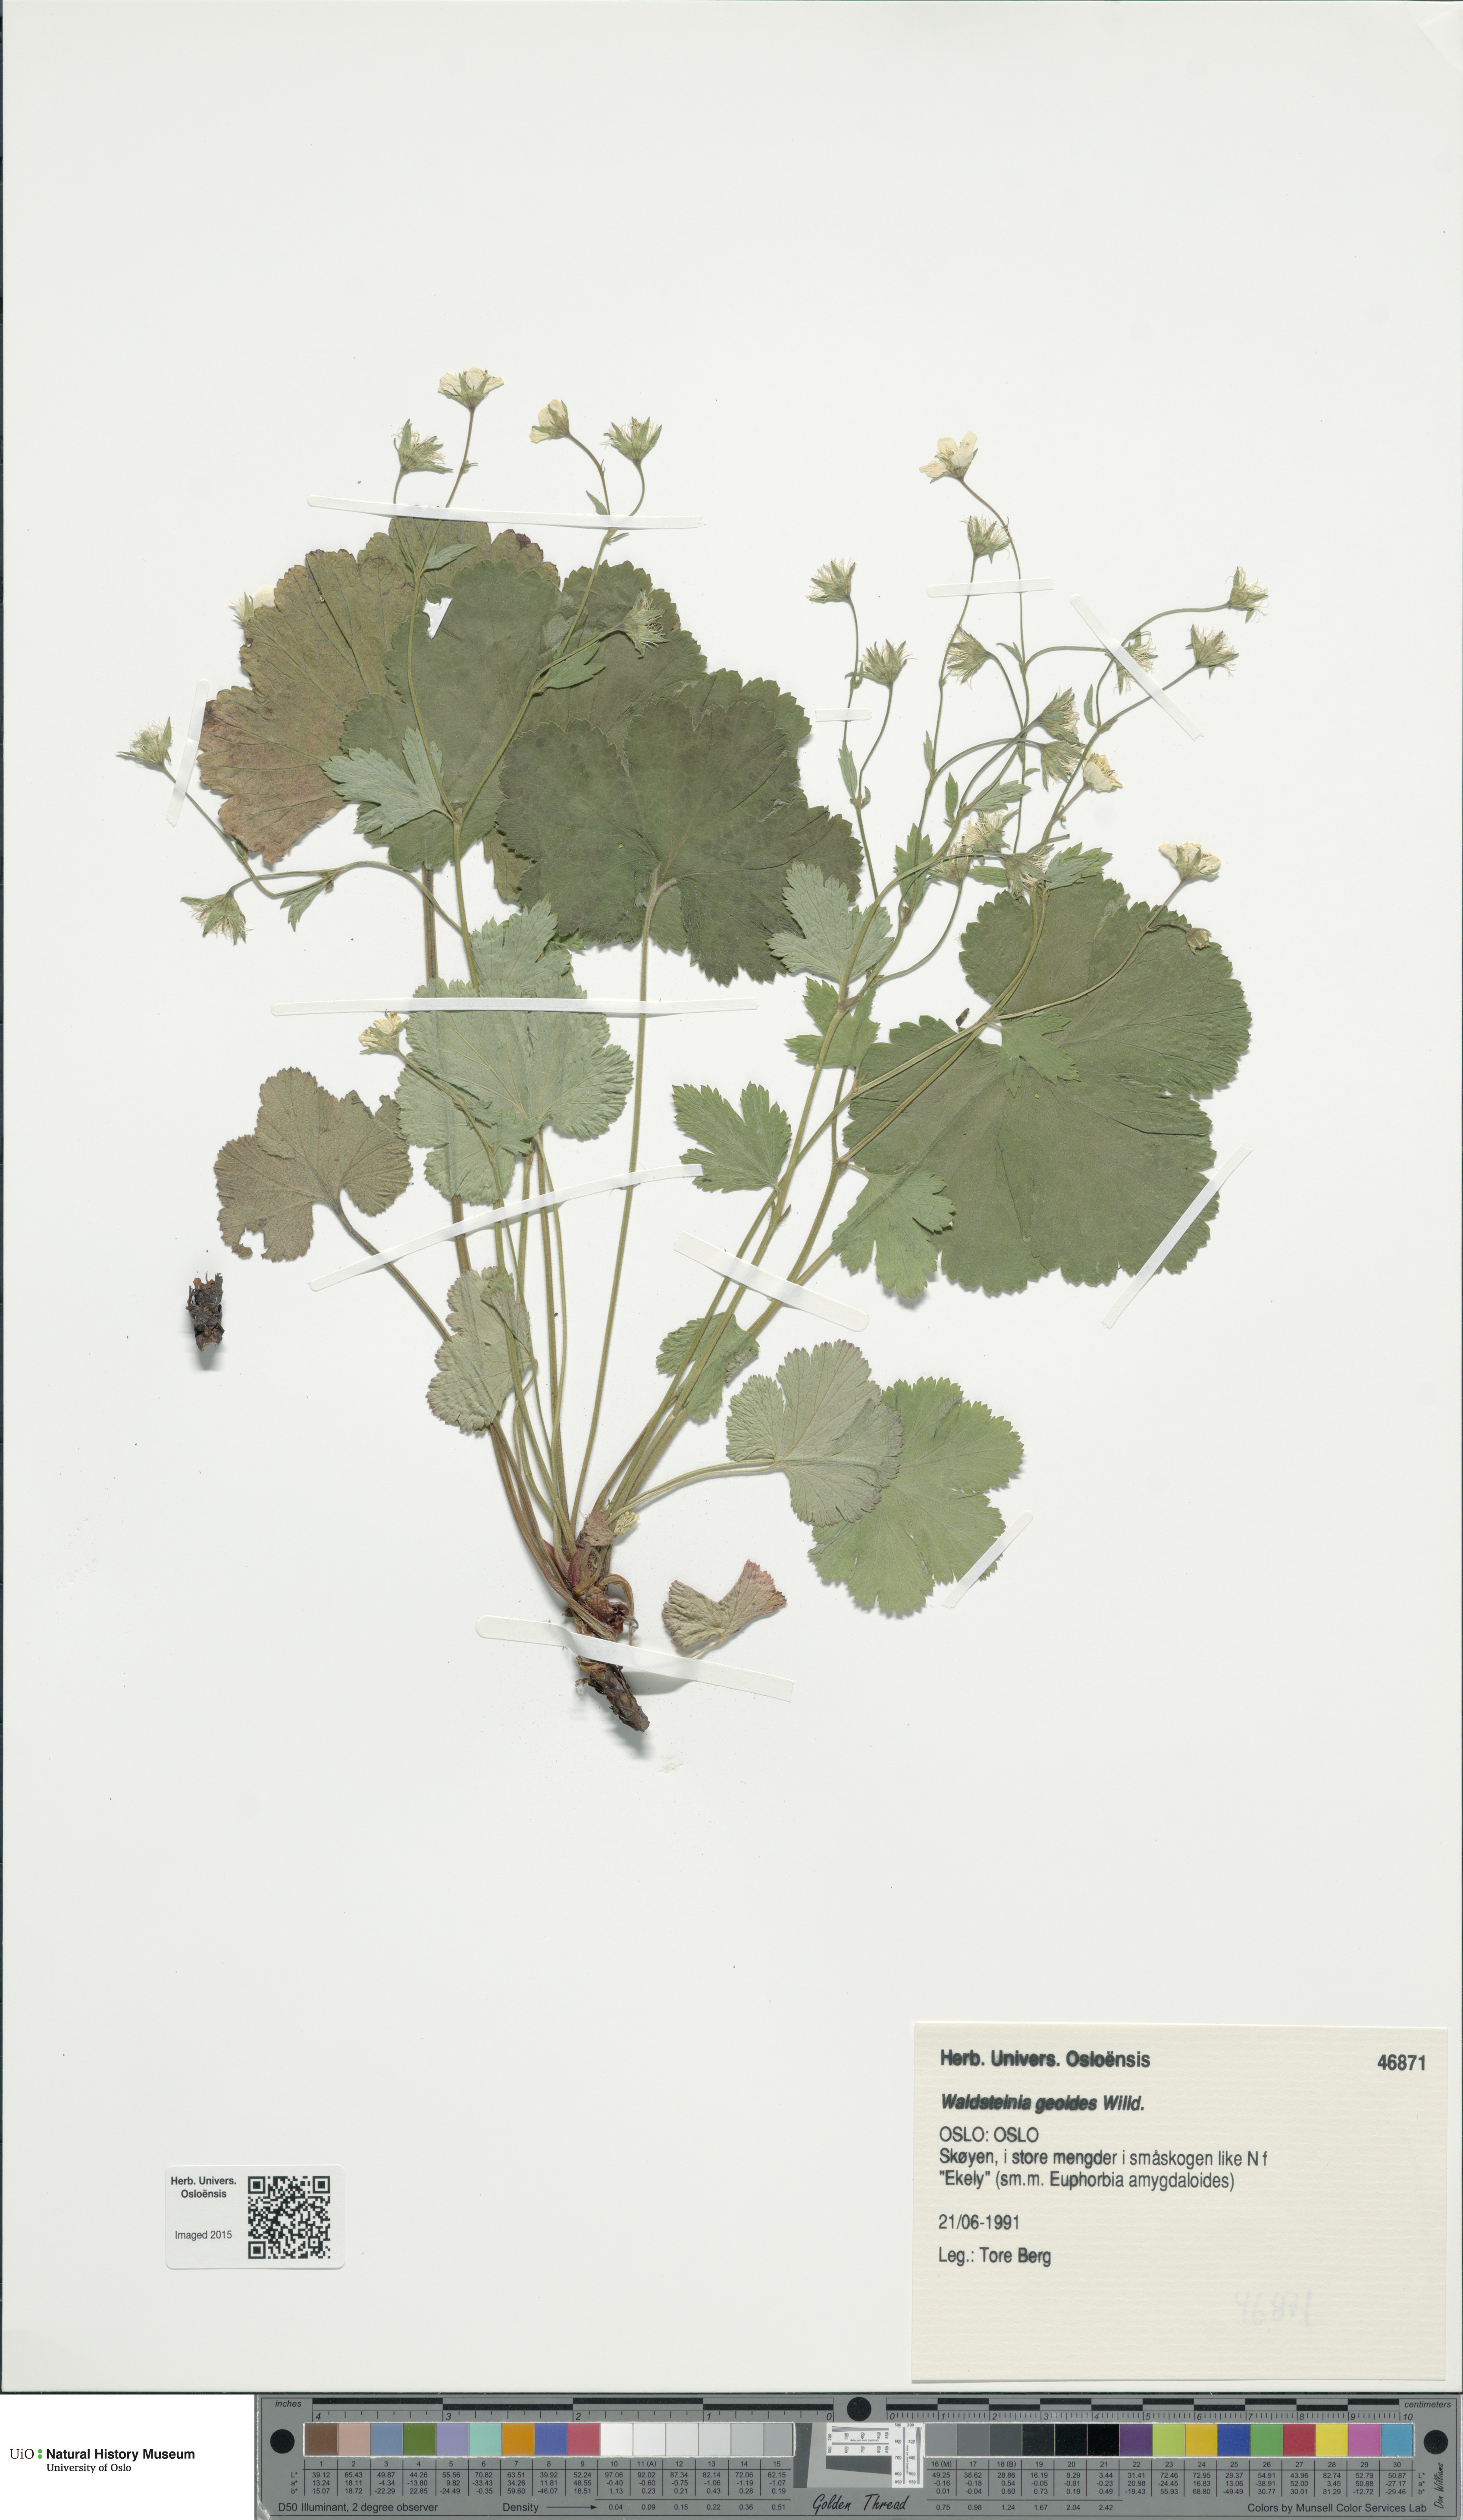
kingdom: Plantae
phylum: Tracheophyta
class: Magnoliopsida
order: Rosales
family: Rosaceae
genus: Geum
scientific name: Geum waldsteinia
